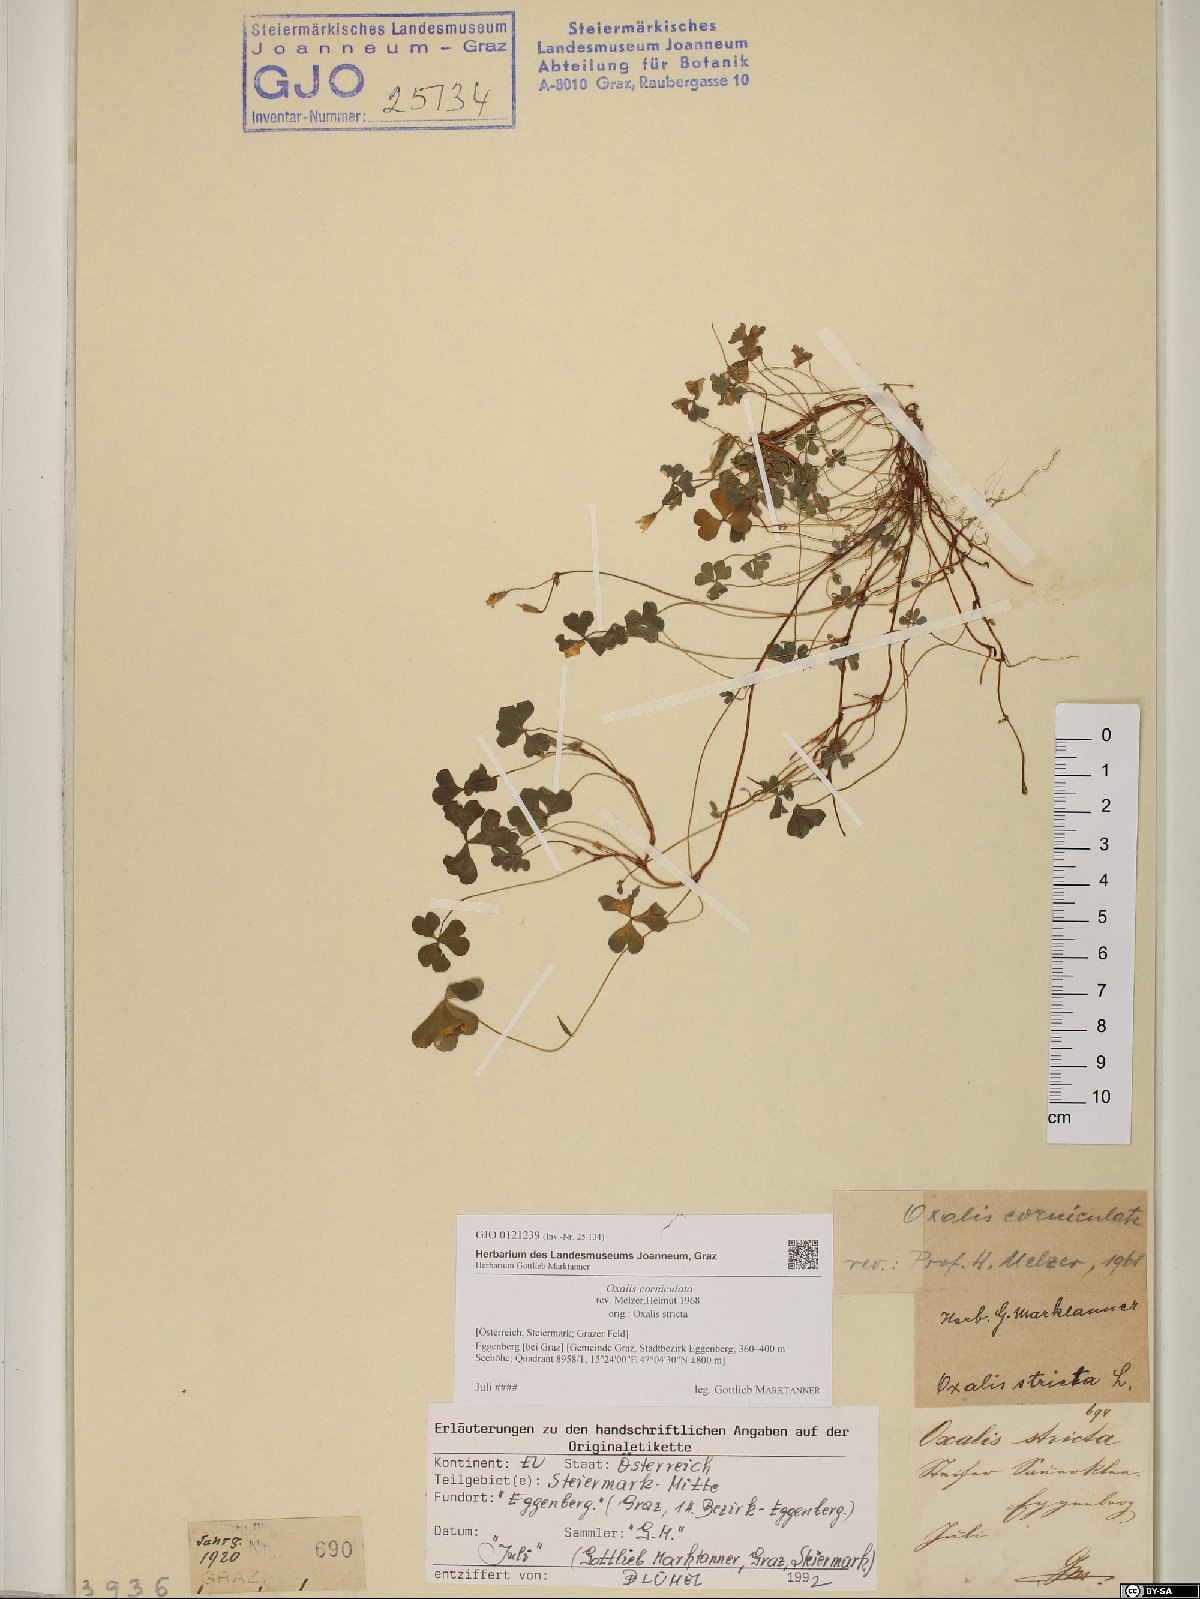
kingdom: Plantae
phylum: Tracheophyta
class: Magnoliopsida
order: Oxalidales
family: Oxalidaceae
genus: Oxalis
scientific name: Oxalis corniculata
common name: Procumbent yellow-sorrel
